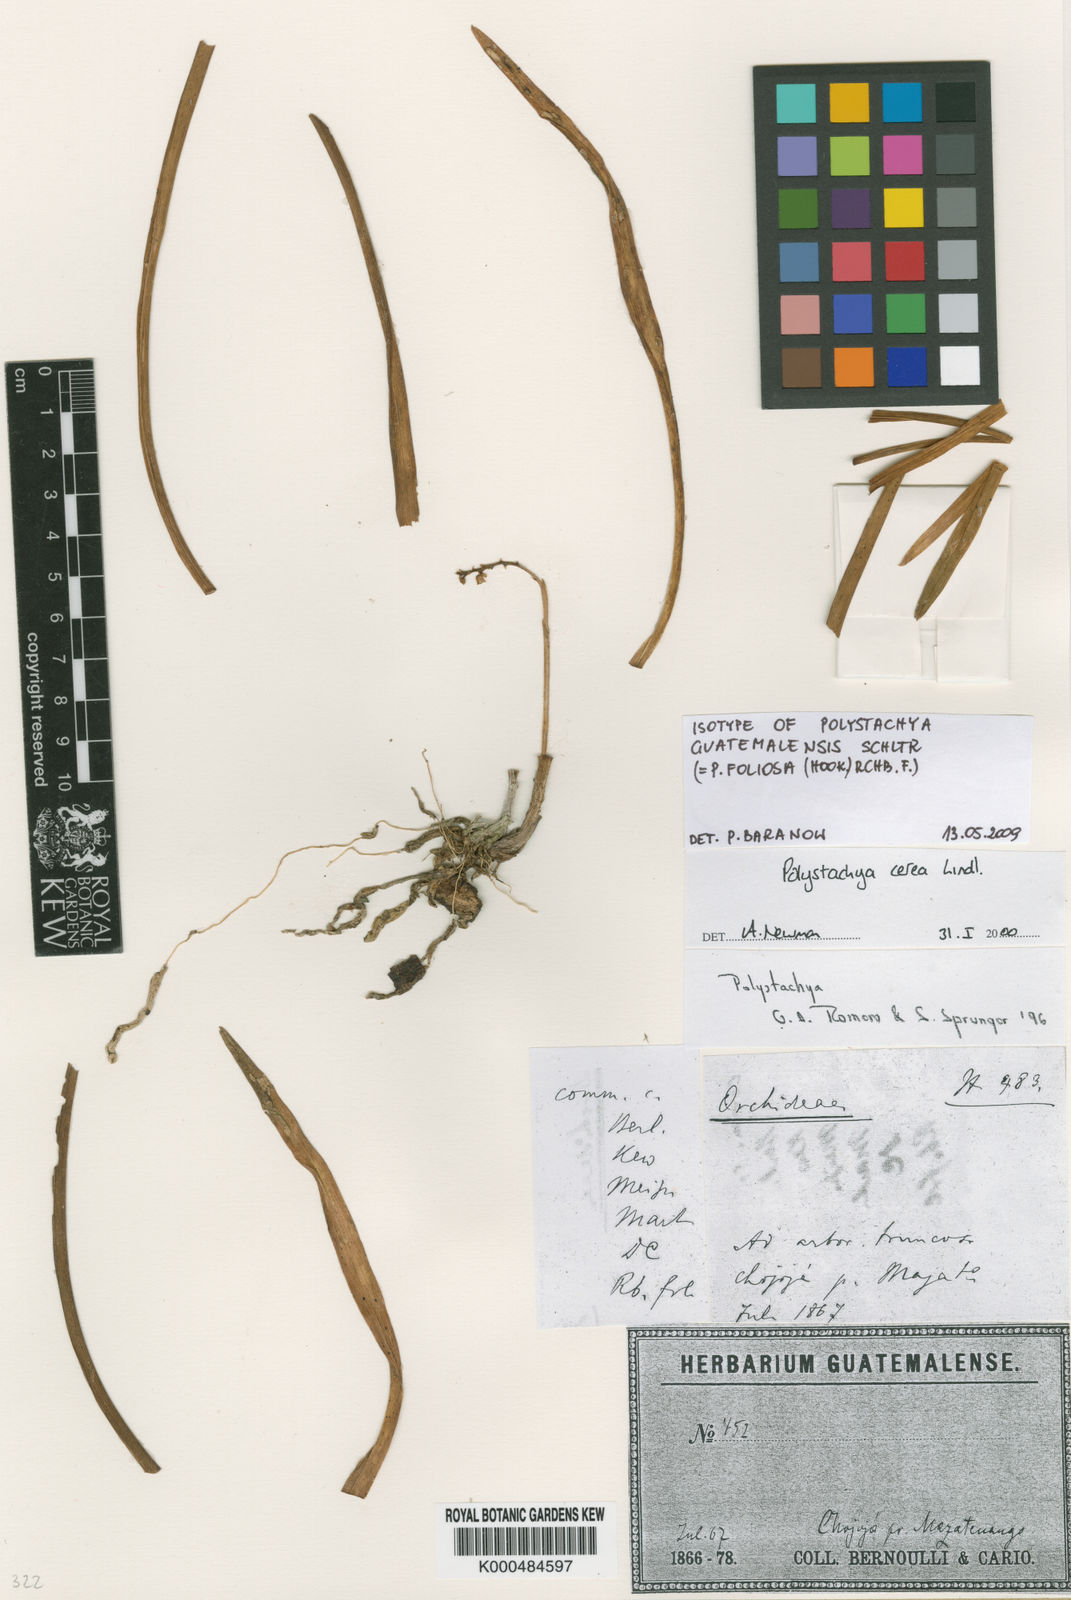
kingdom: Plantae
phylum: Tracheophyta
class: Liliopsida
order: Asparagales
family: Orchidaceae
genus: Polystachya
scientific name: Polystachya foliosa
